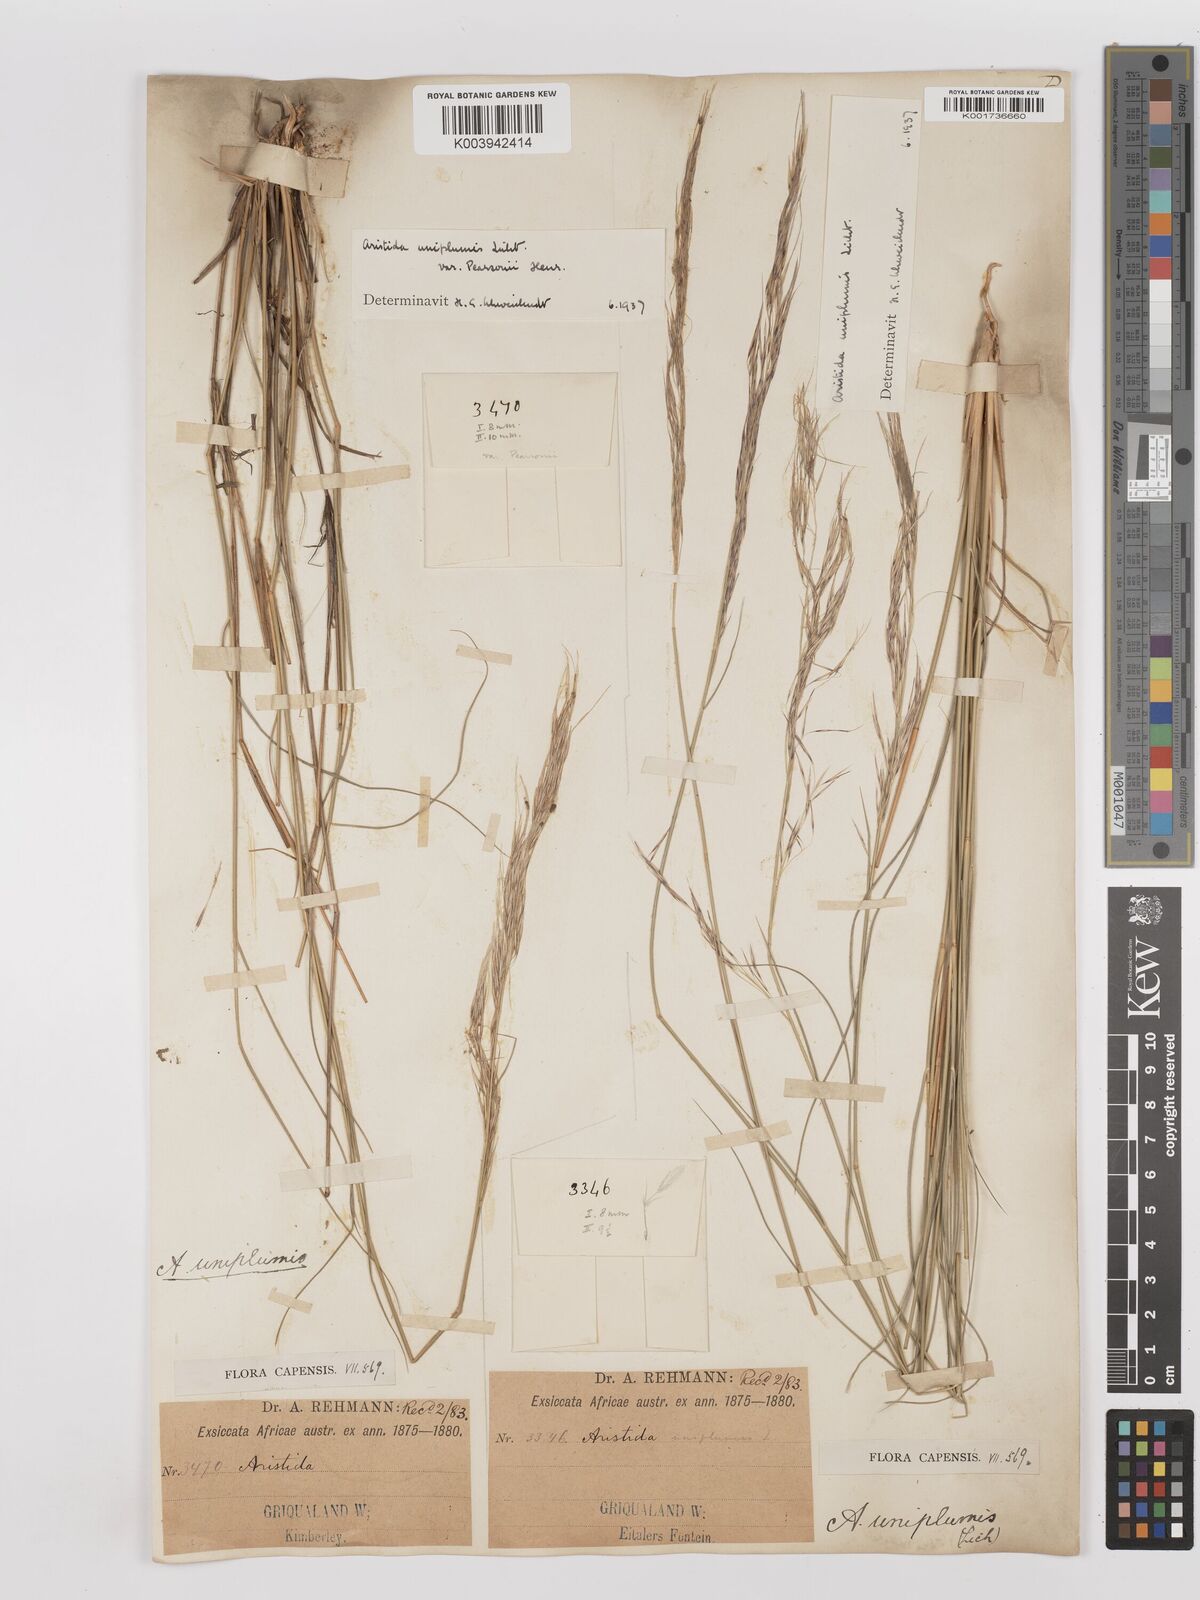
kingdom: Plantae
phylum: Tracheophyta
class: Liliopsida
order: Poales
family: Poaceae
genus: Stipagrostis
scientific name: Stipagrostis uniplumis
